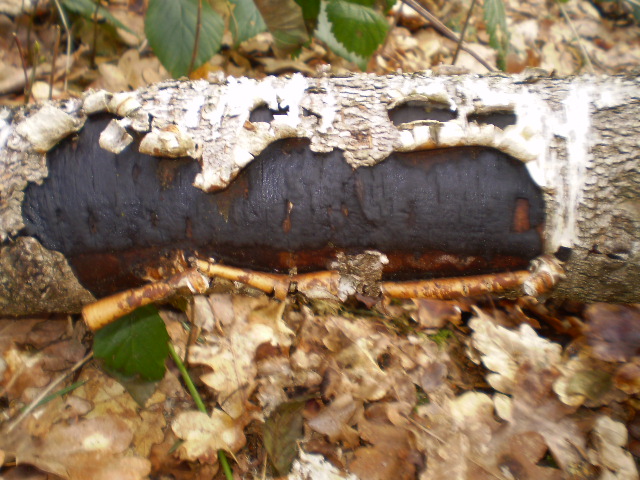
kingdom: Fungi
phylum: Ascomycota
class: Sordariomycetes
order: Xylariales
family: Diatrypaceae
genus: Diatrype
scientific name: Diatrype stigma
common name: udbredt kulskorpe
